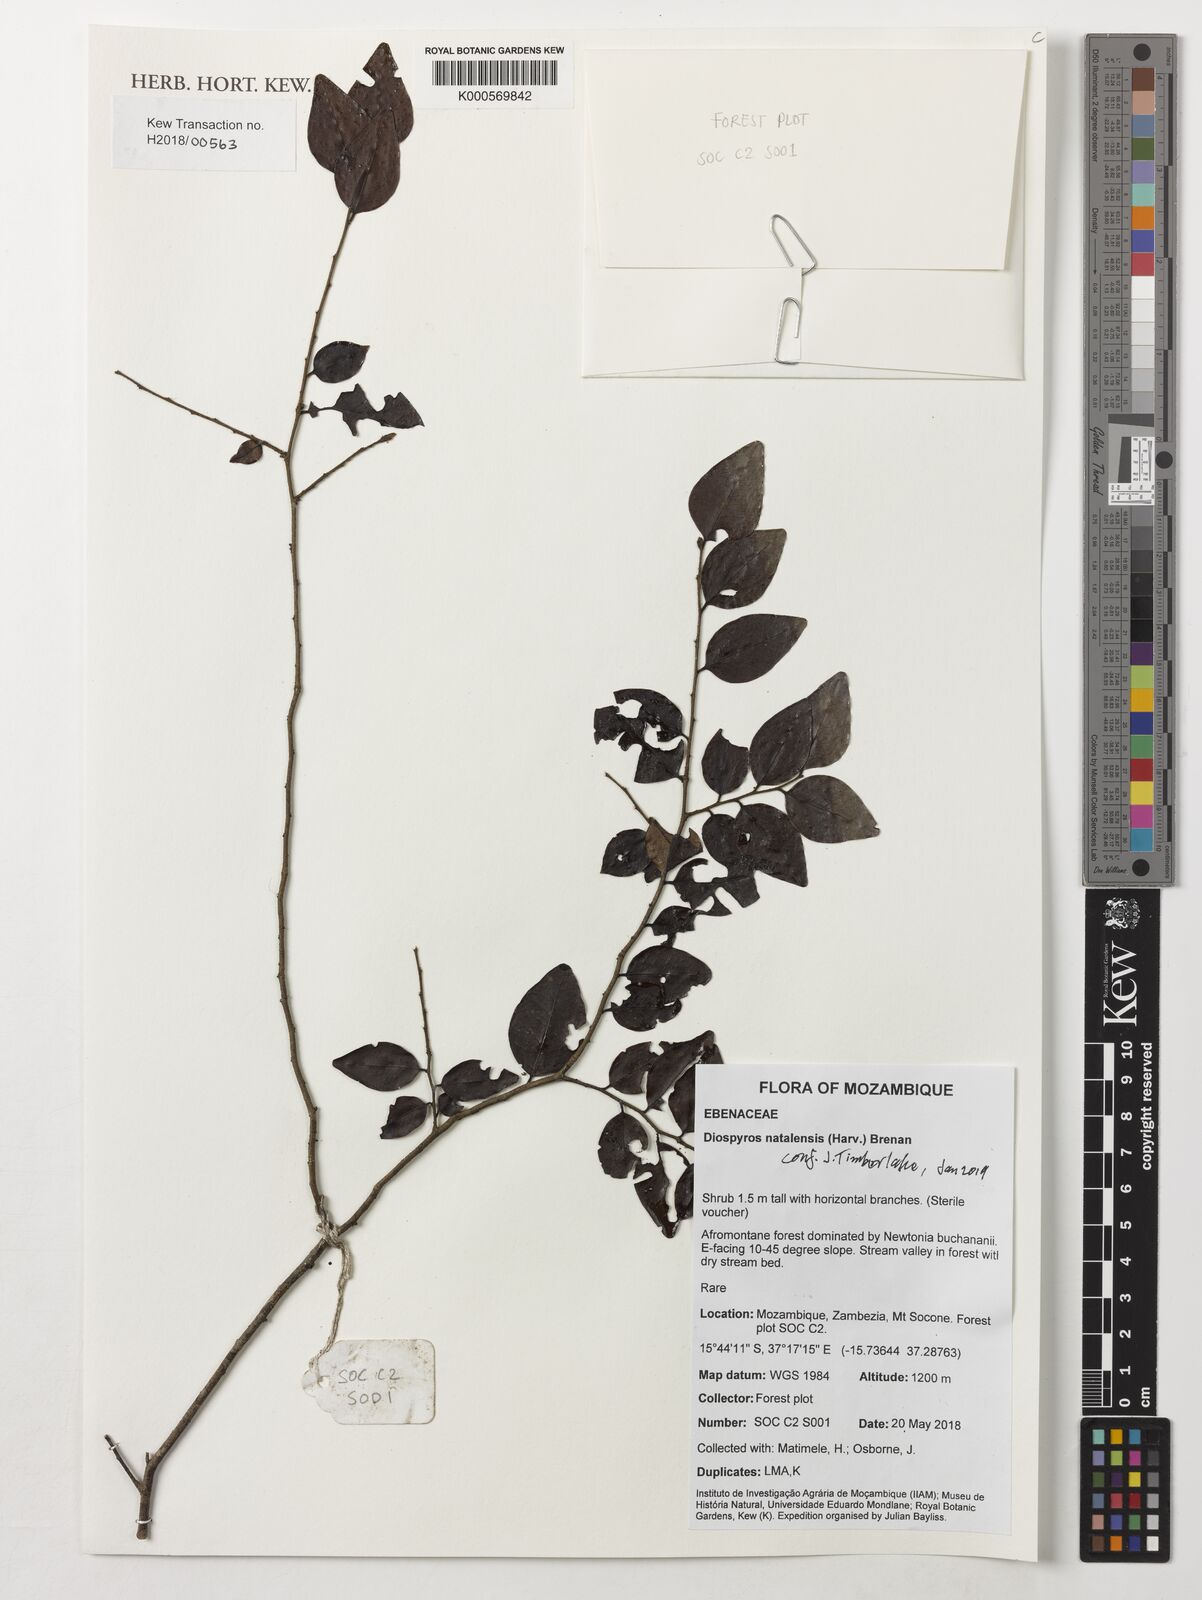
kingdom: Plantae
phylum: Tracheophyta
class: Magnoliopsida
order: Ericales
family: Ebenaceae
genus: Diospyros
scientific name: Diospyros natalensis
